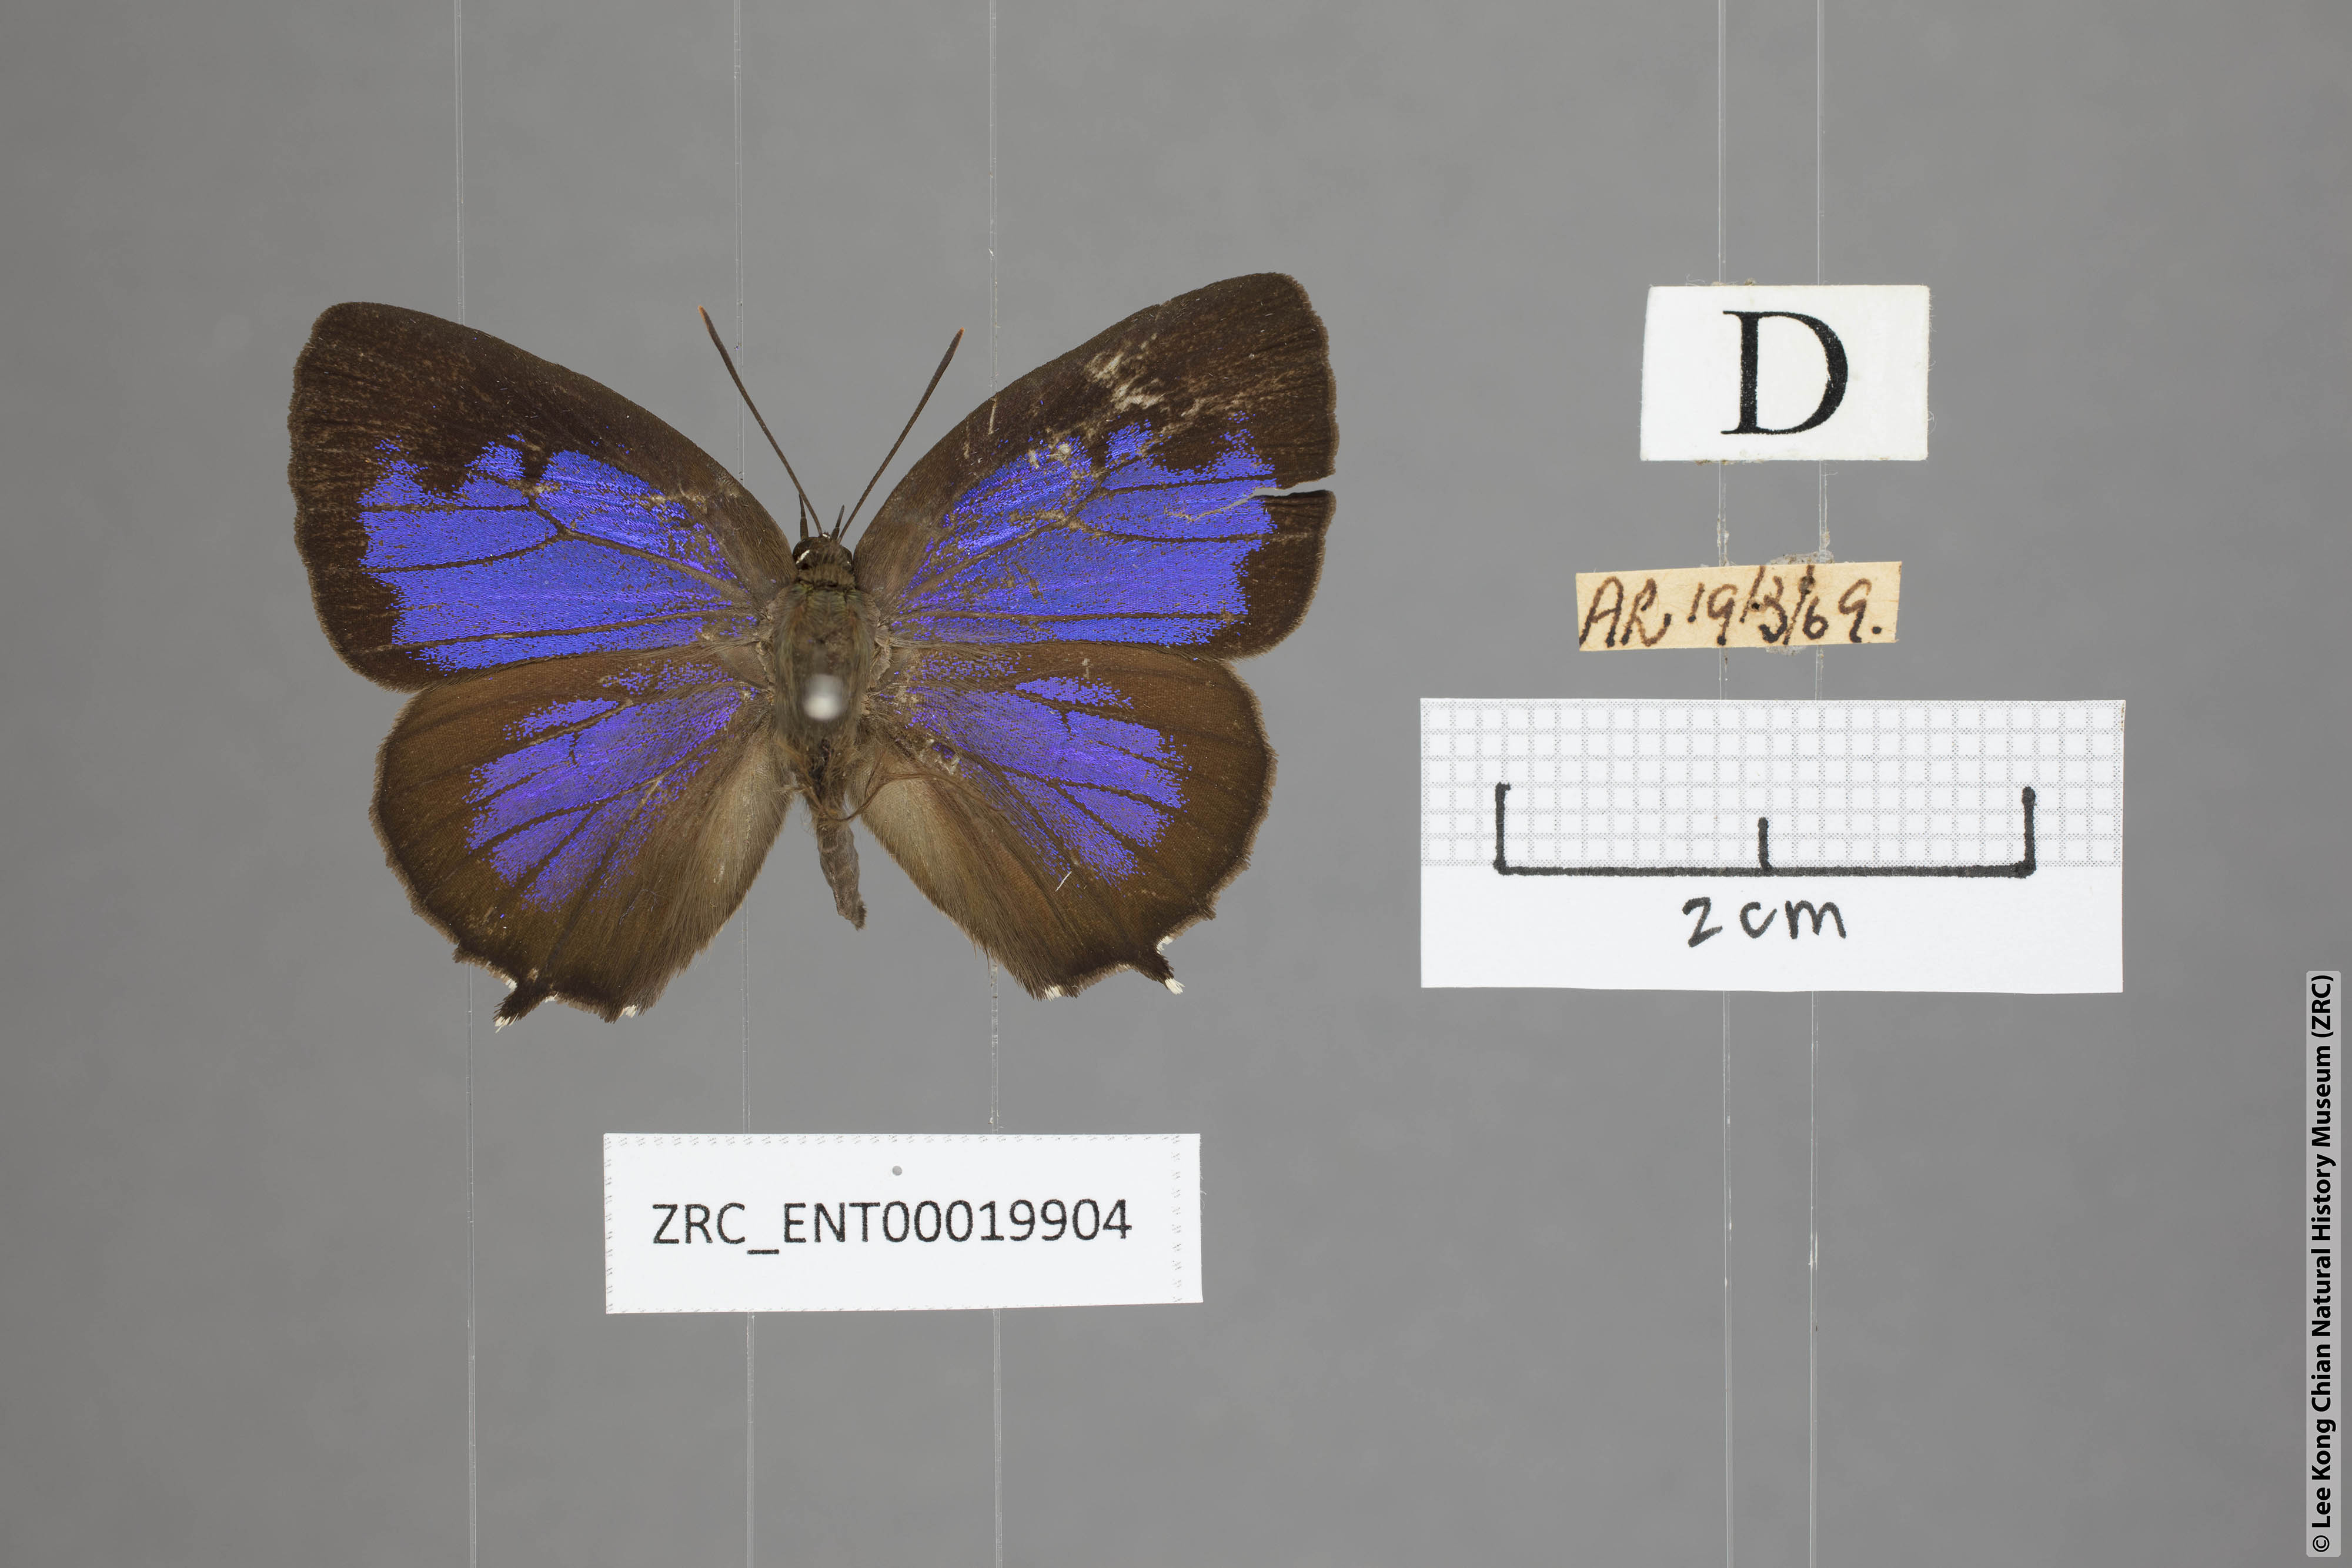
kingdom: Animalia
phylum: Arthropoda
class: Insecta
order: Lepidoptera
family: Lycaenidae
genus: Arhopala
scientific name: Arhopala trogon
